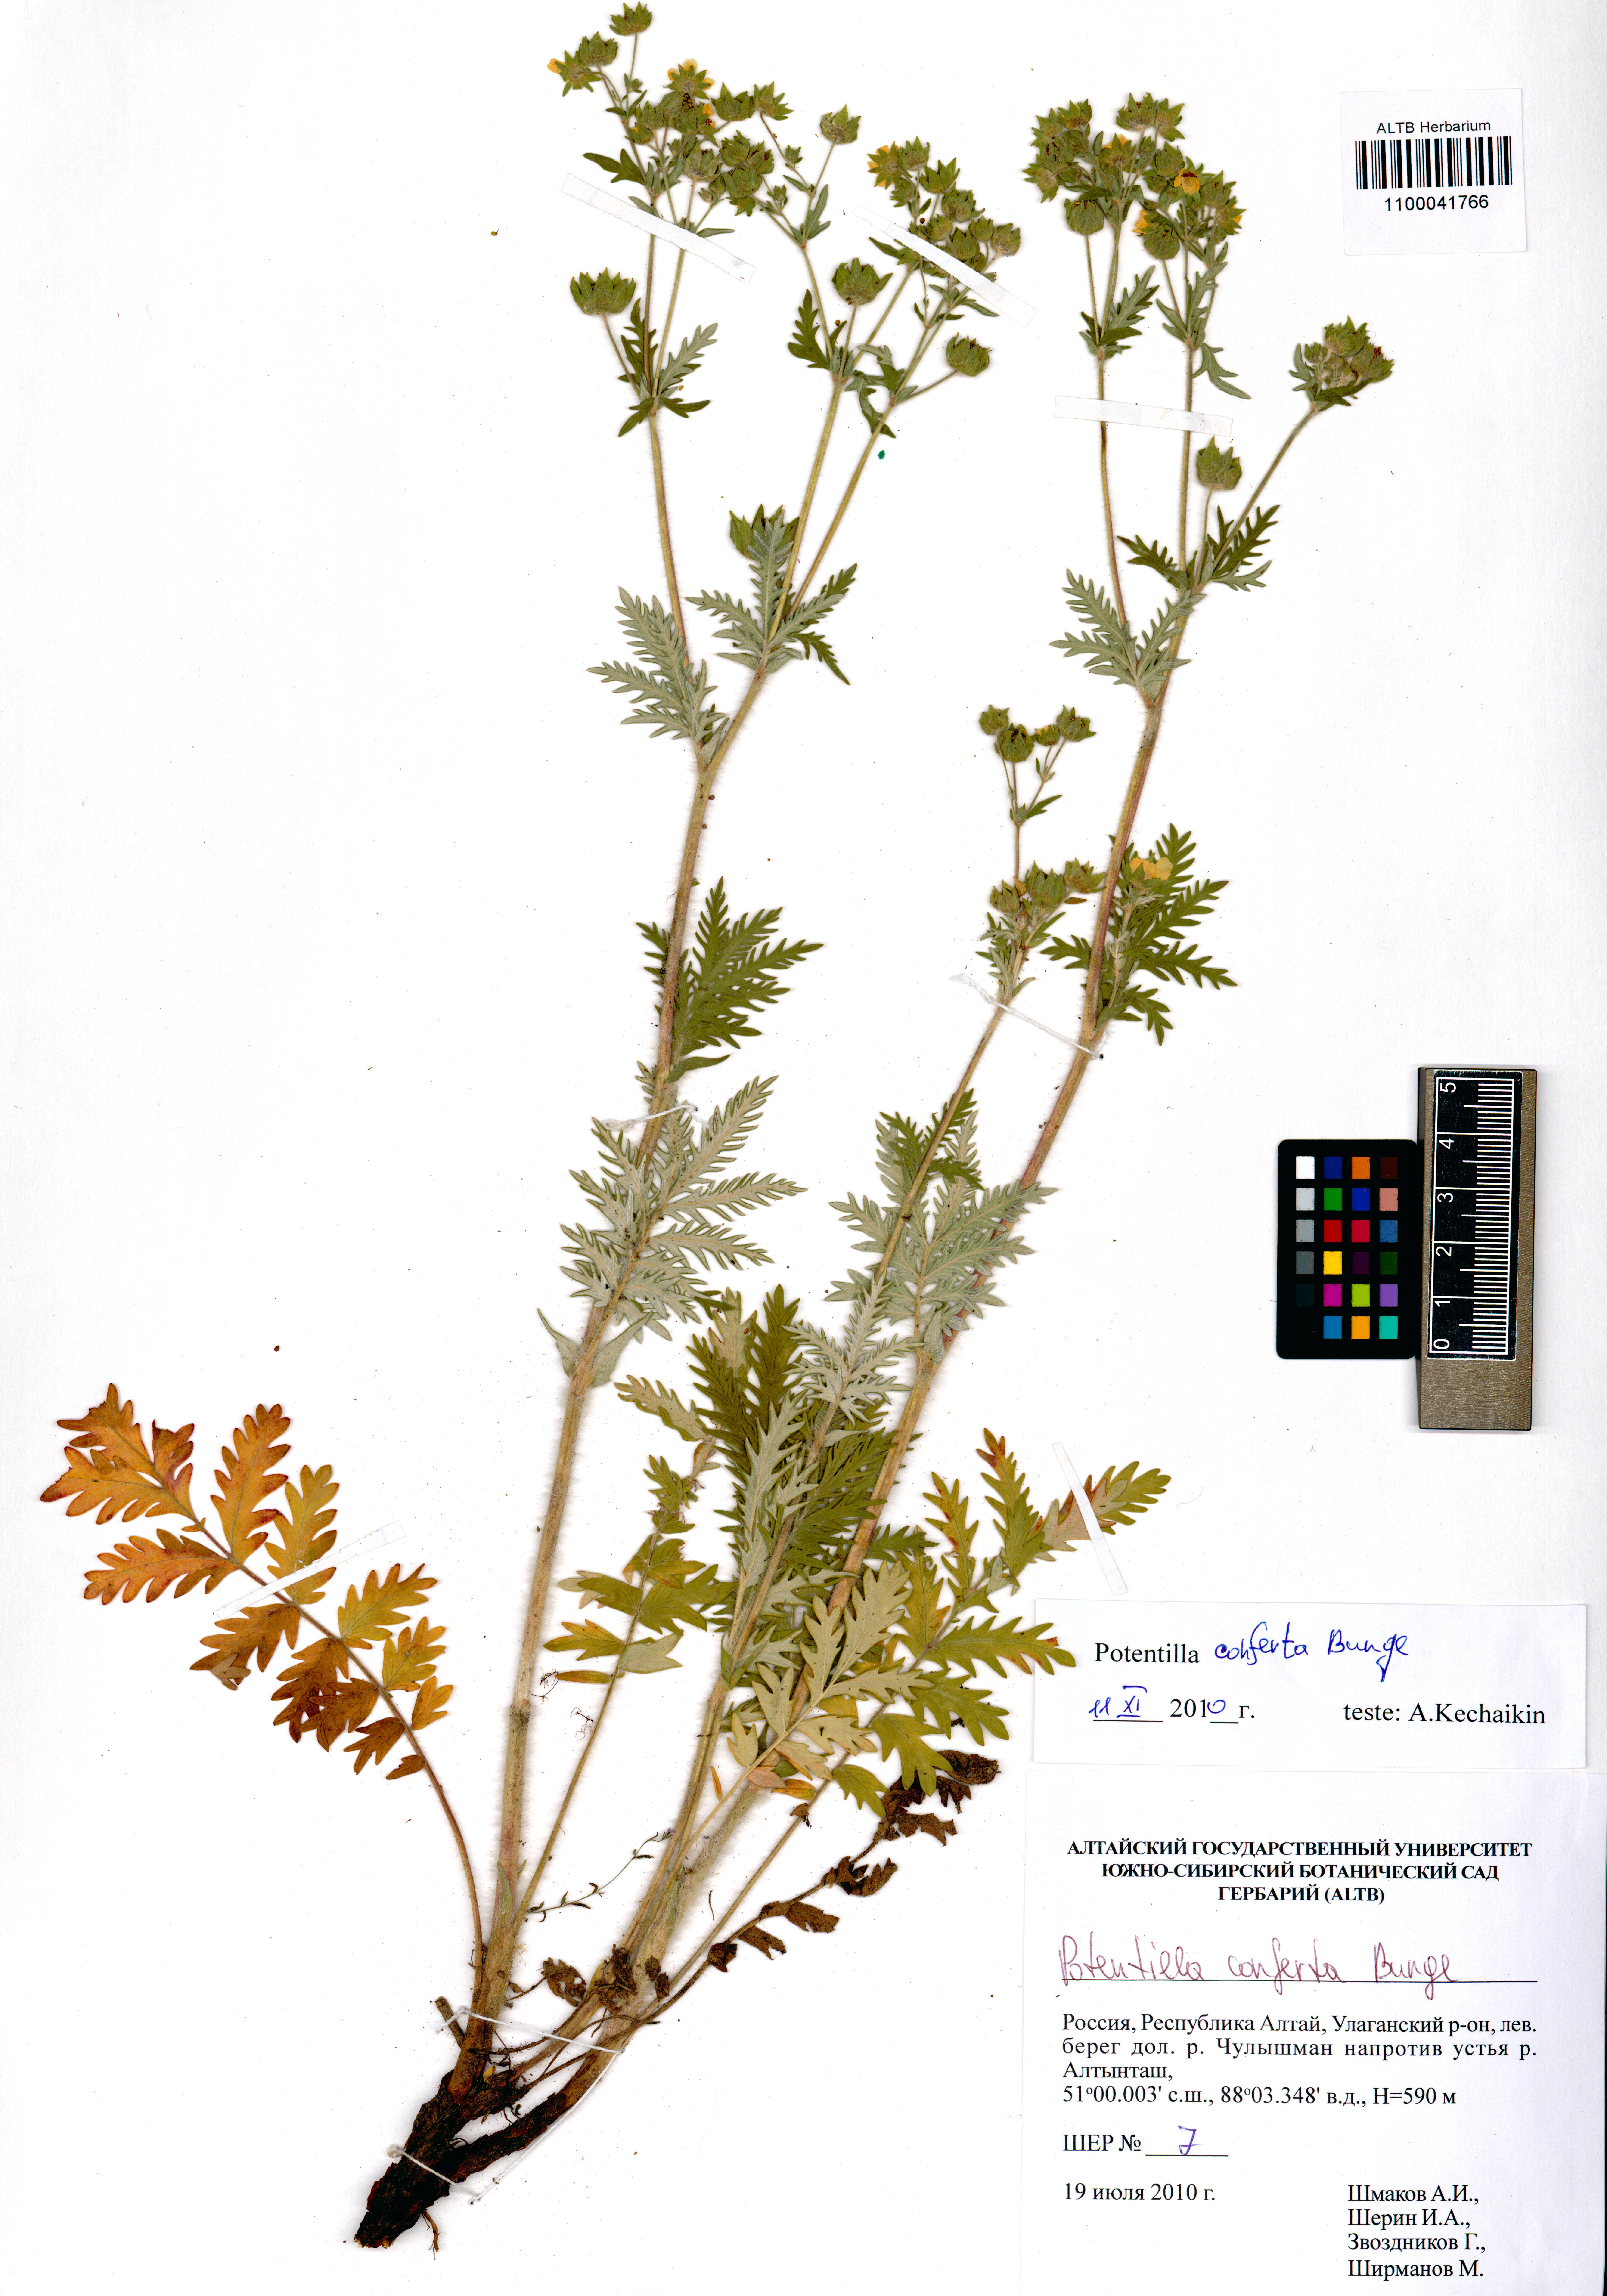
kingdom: Plantae
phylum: Tracheophyta
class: Magnoliopsida
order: Rosales
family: Rosaceae
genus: Potentilla
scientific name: Potentilla conferta
